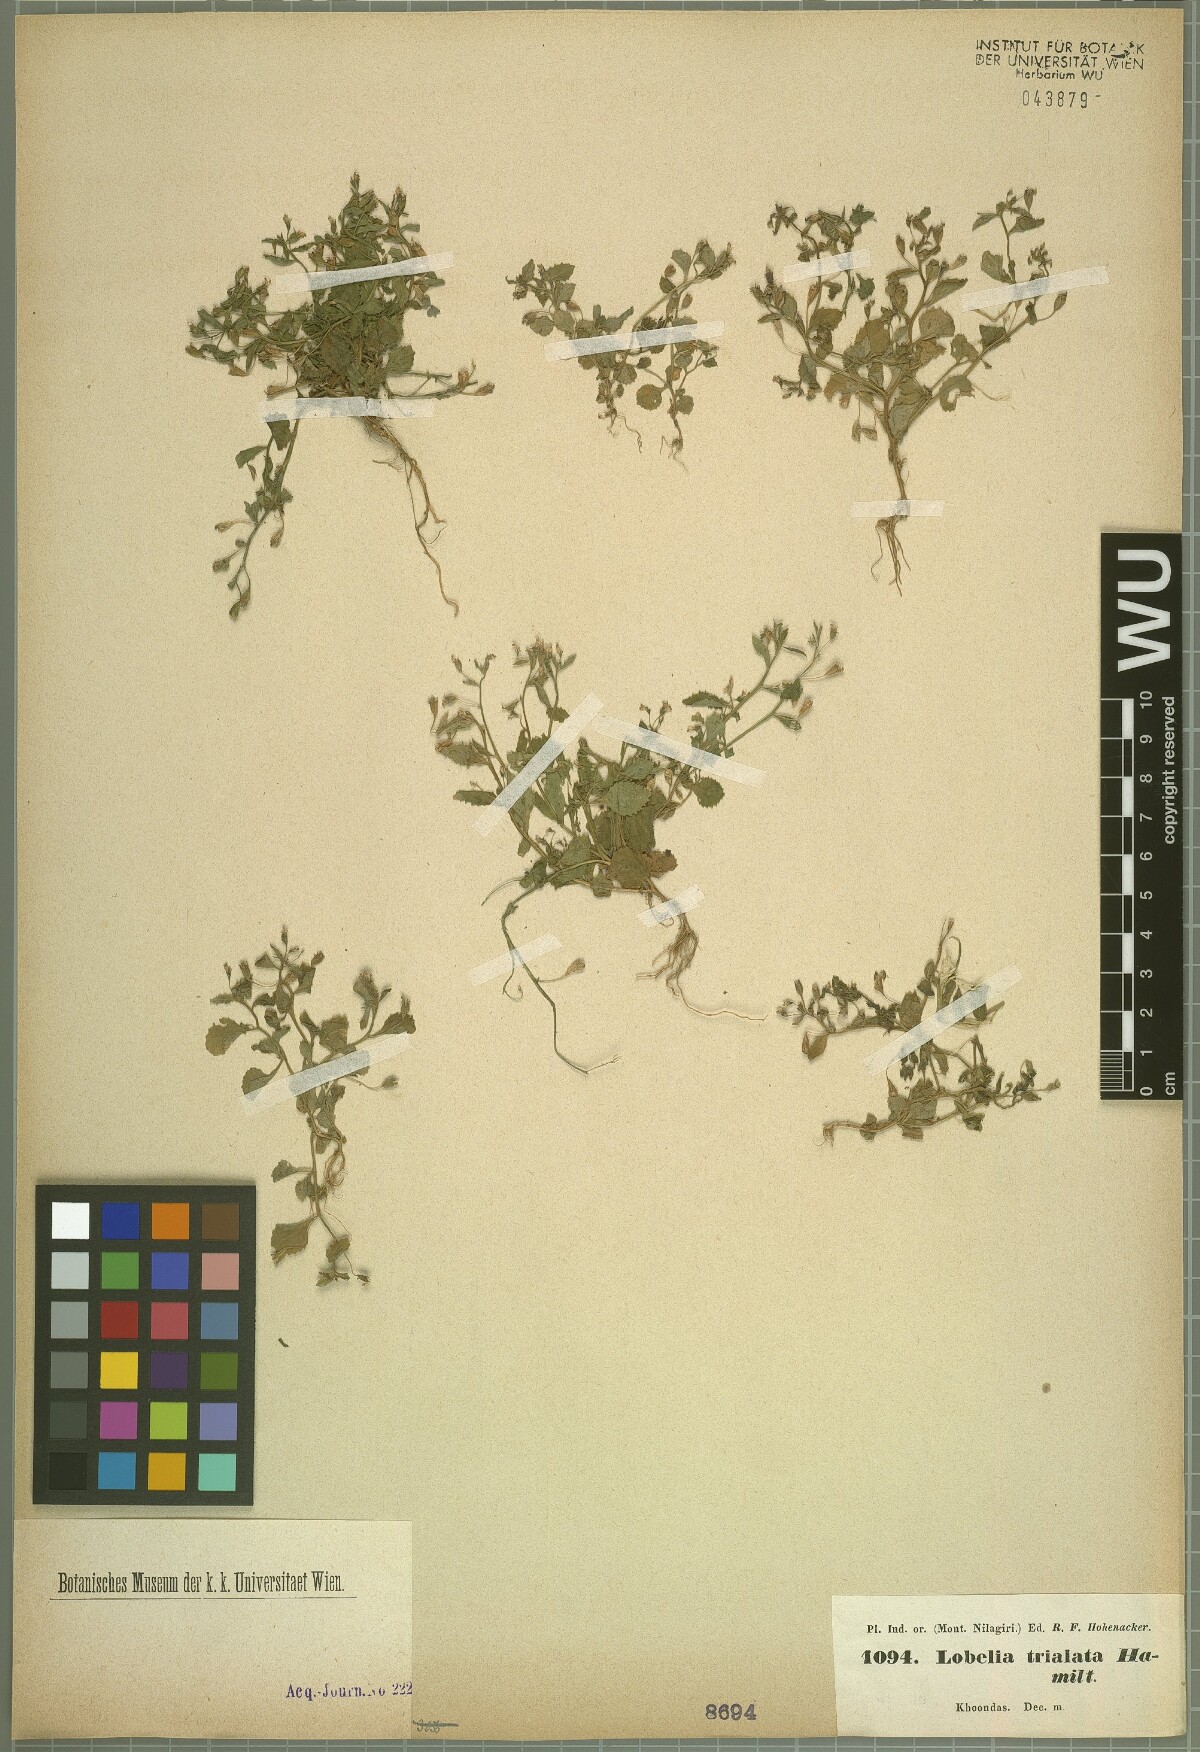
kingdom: Plantae
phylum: Tracheophyta
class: Magnoliopsida
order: Asterales
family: Campanulaceae
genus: Lobelia
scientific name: Lobelia trialata
